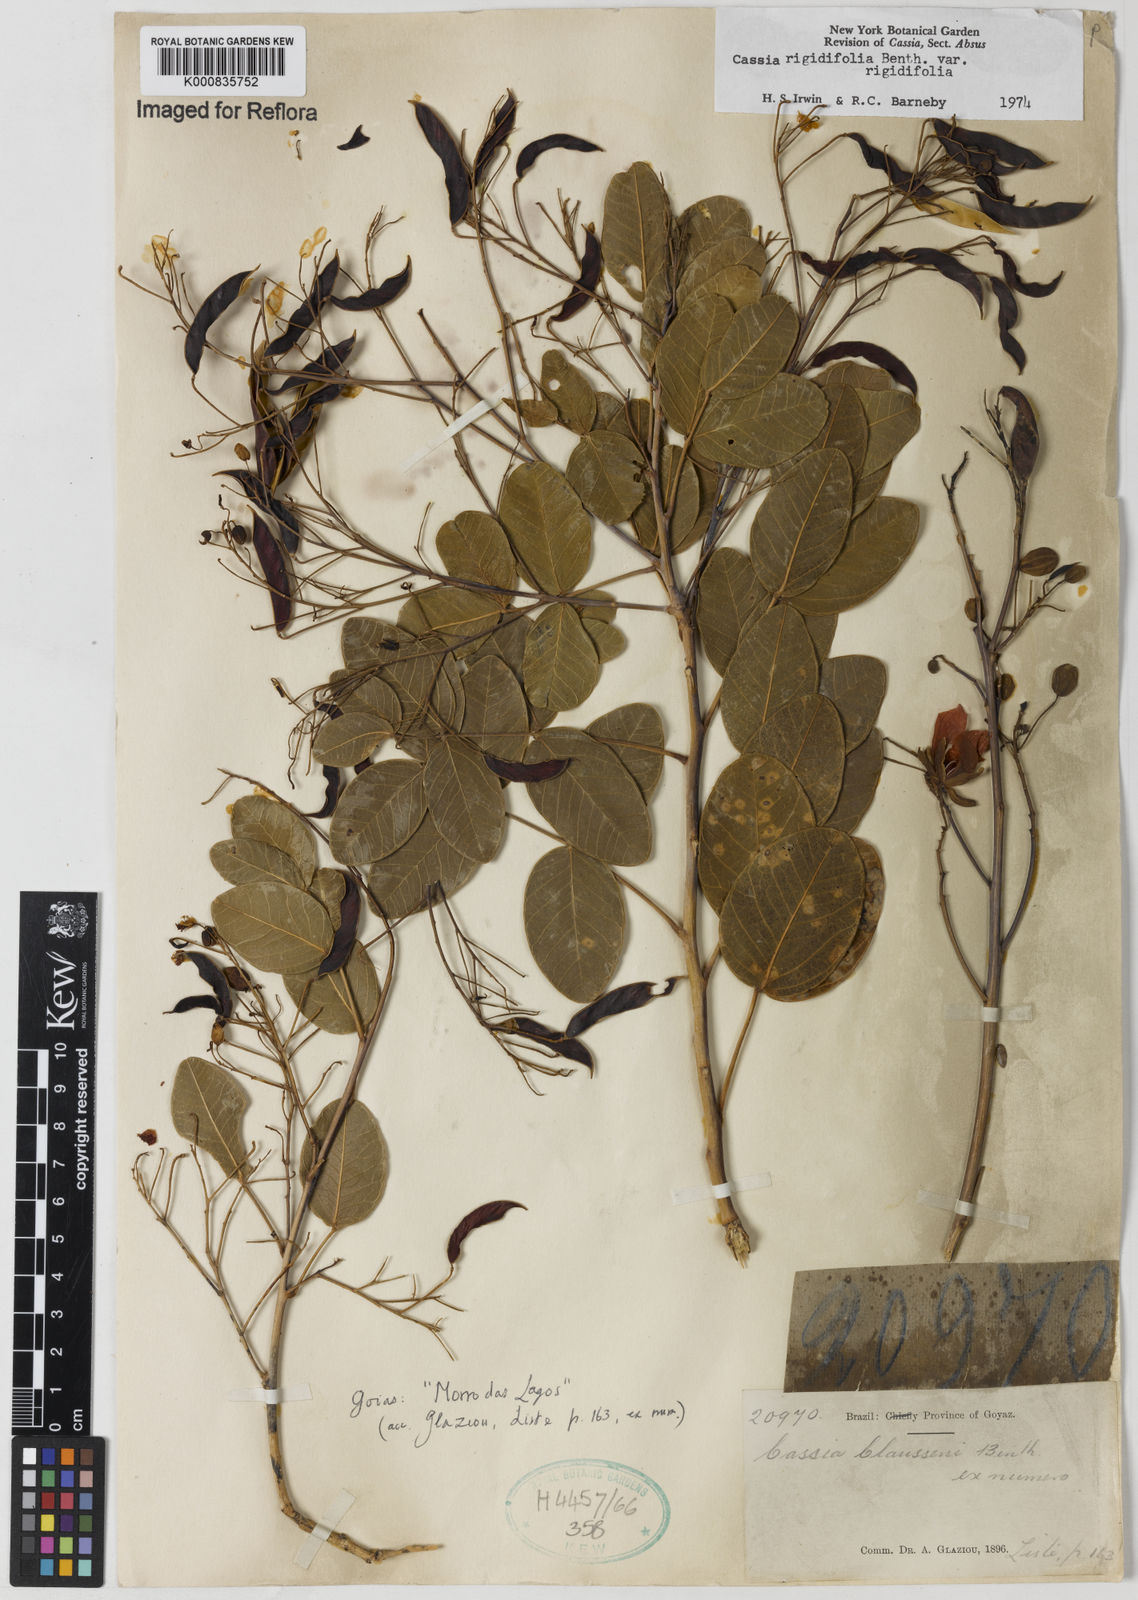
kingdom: Plantae
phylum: Tracheophyta
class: Magnoliopsida
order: Fabales
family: Fabaceae
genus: Chamaecrista
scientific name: Chamaecrista rigidifolia
